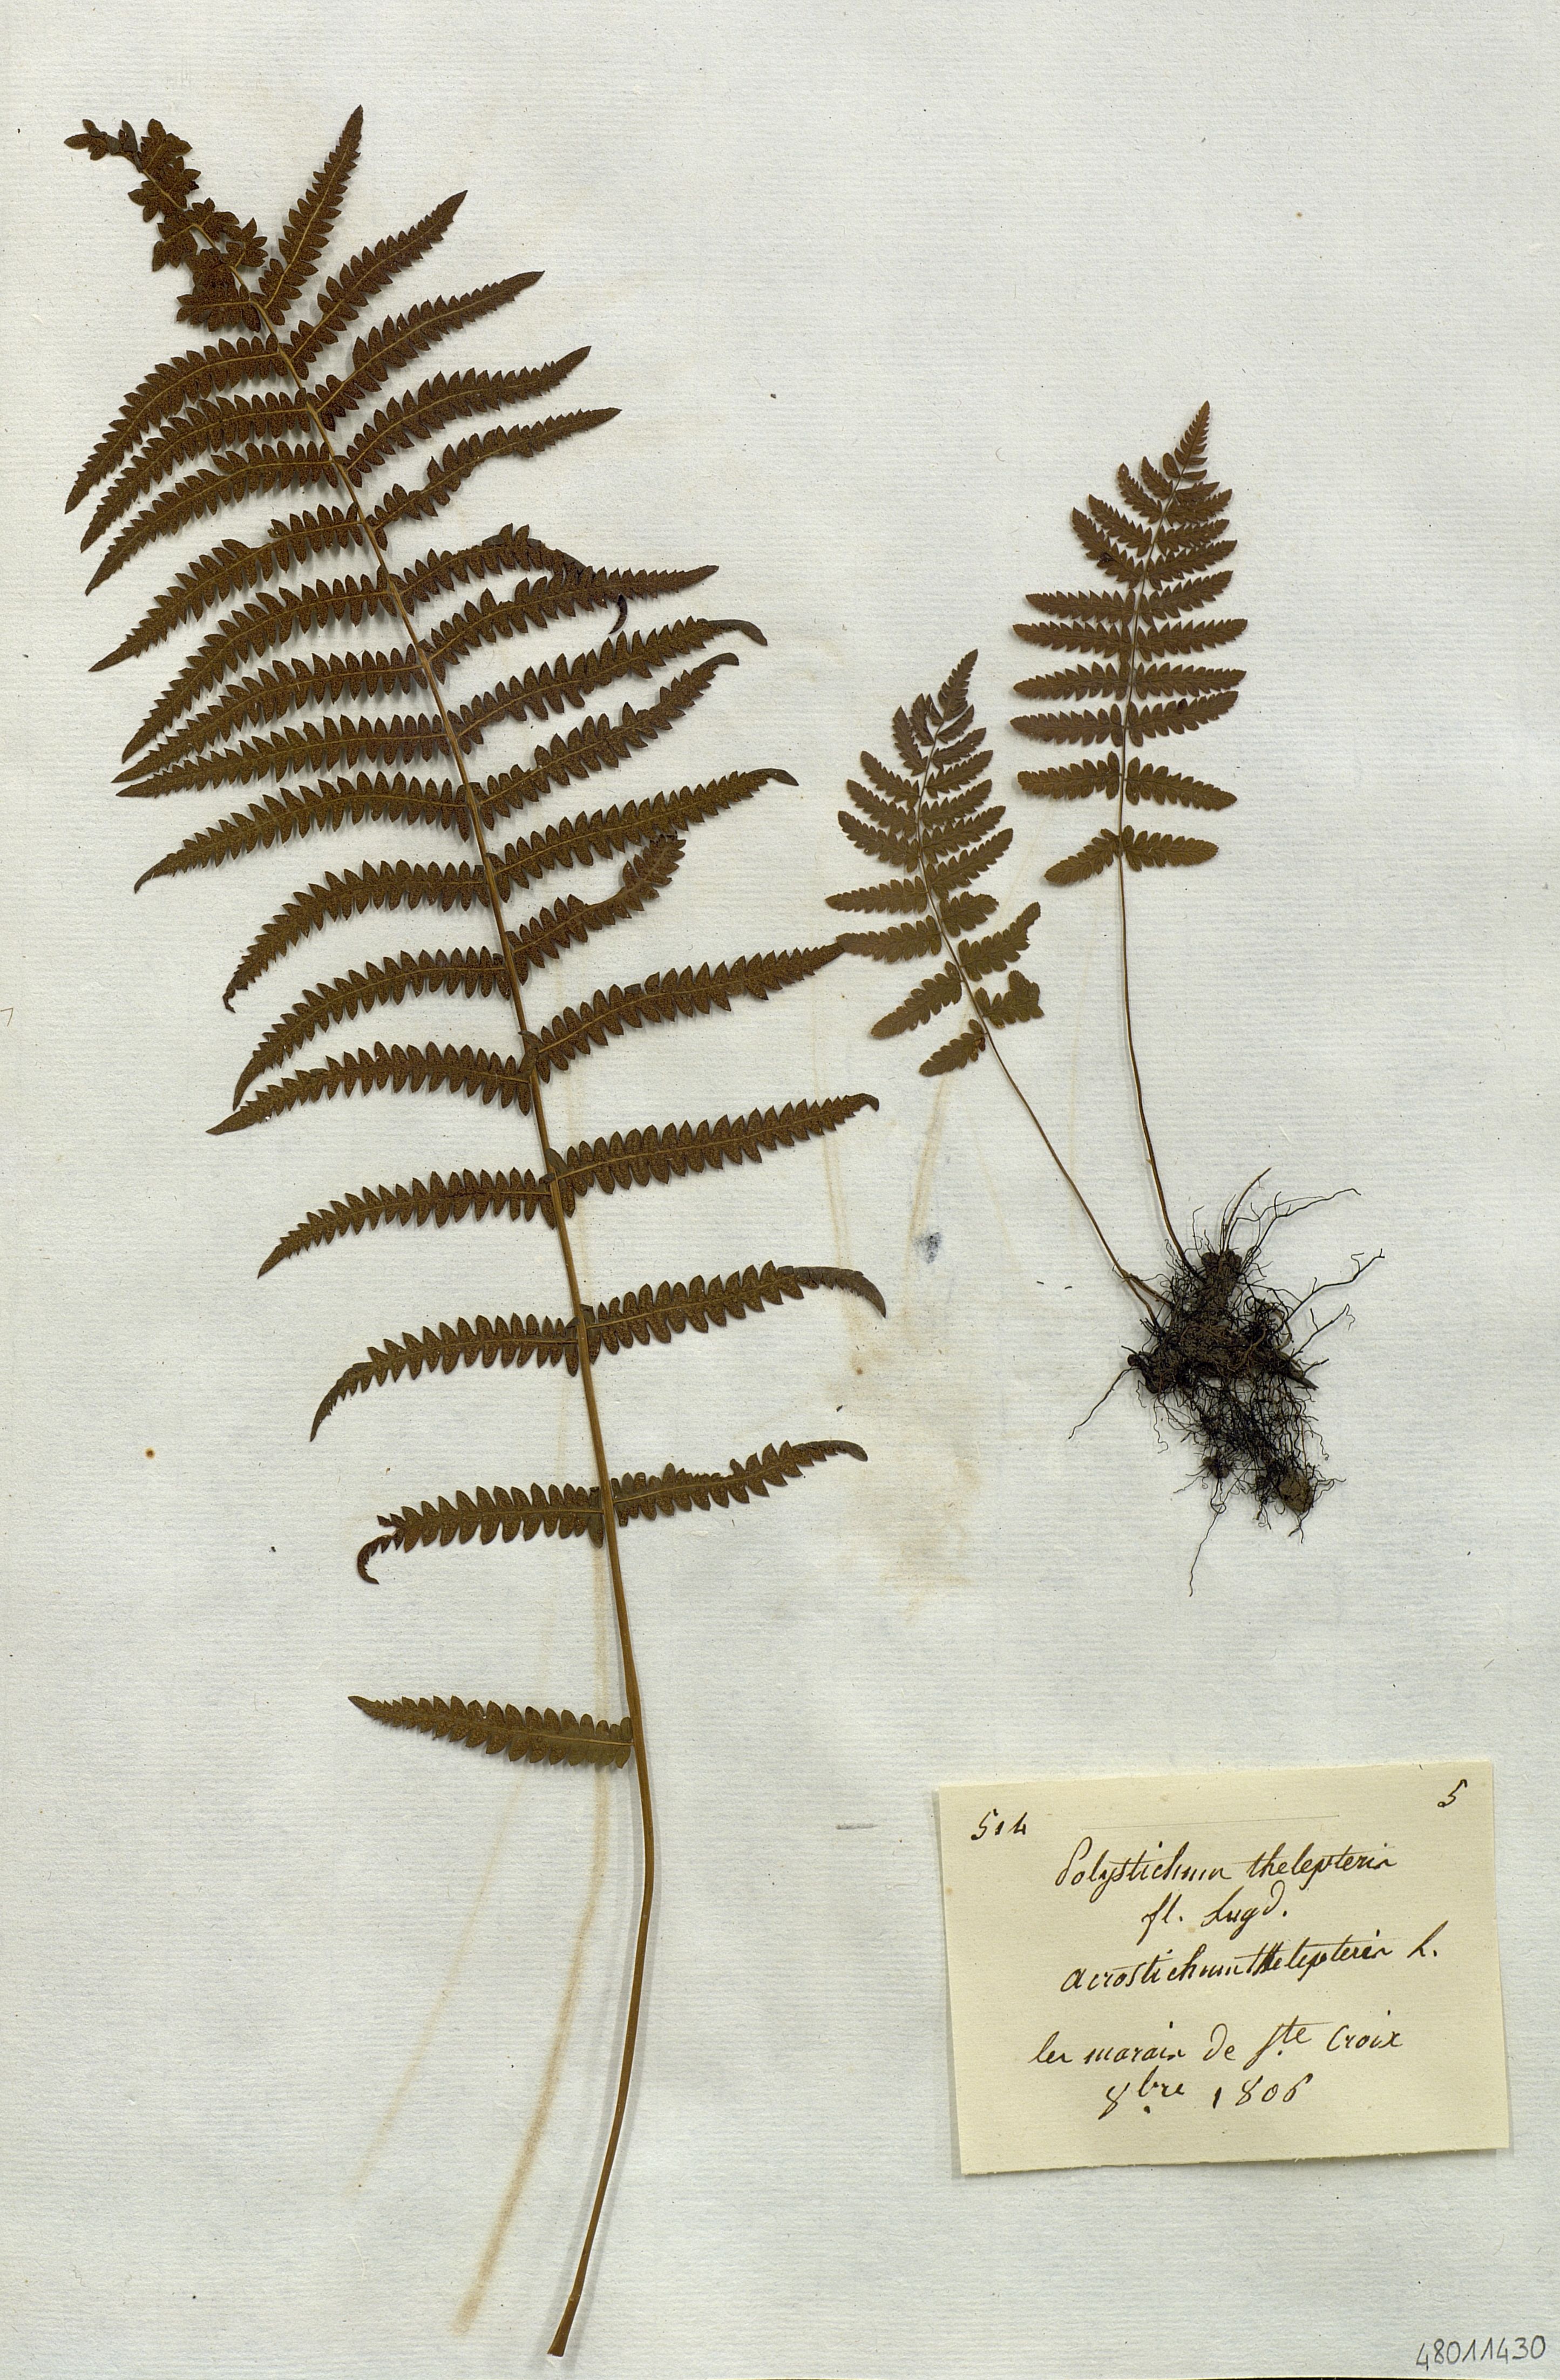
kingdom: Plantae
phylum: Tracheophyta
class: Polypodiopsida
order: Polypodiales
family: Dryopteridaceae
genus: Polystichum
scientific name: Polystichum
